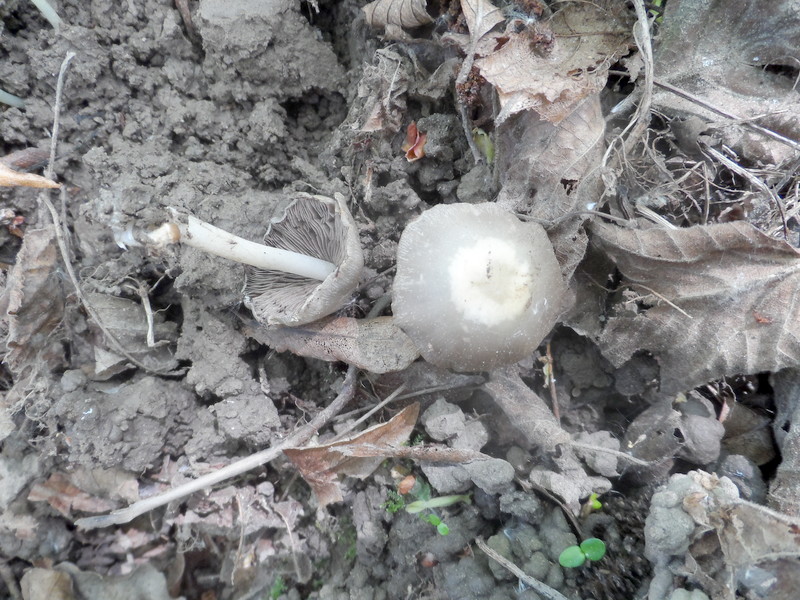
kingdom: Fungi
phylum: Basidiomycota
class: Agaricomycetes
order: Agaricales
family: Psathyrellaceae
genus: Psathyrella
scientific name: Psathyrella spadiceogrisea
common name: Spring brittlestem
